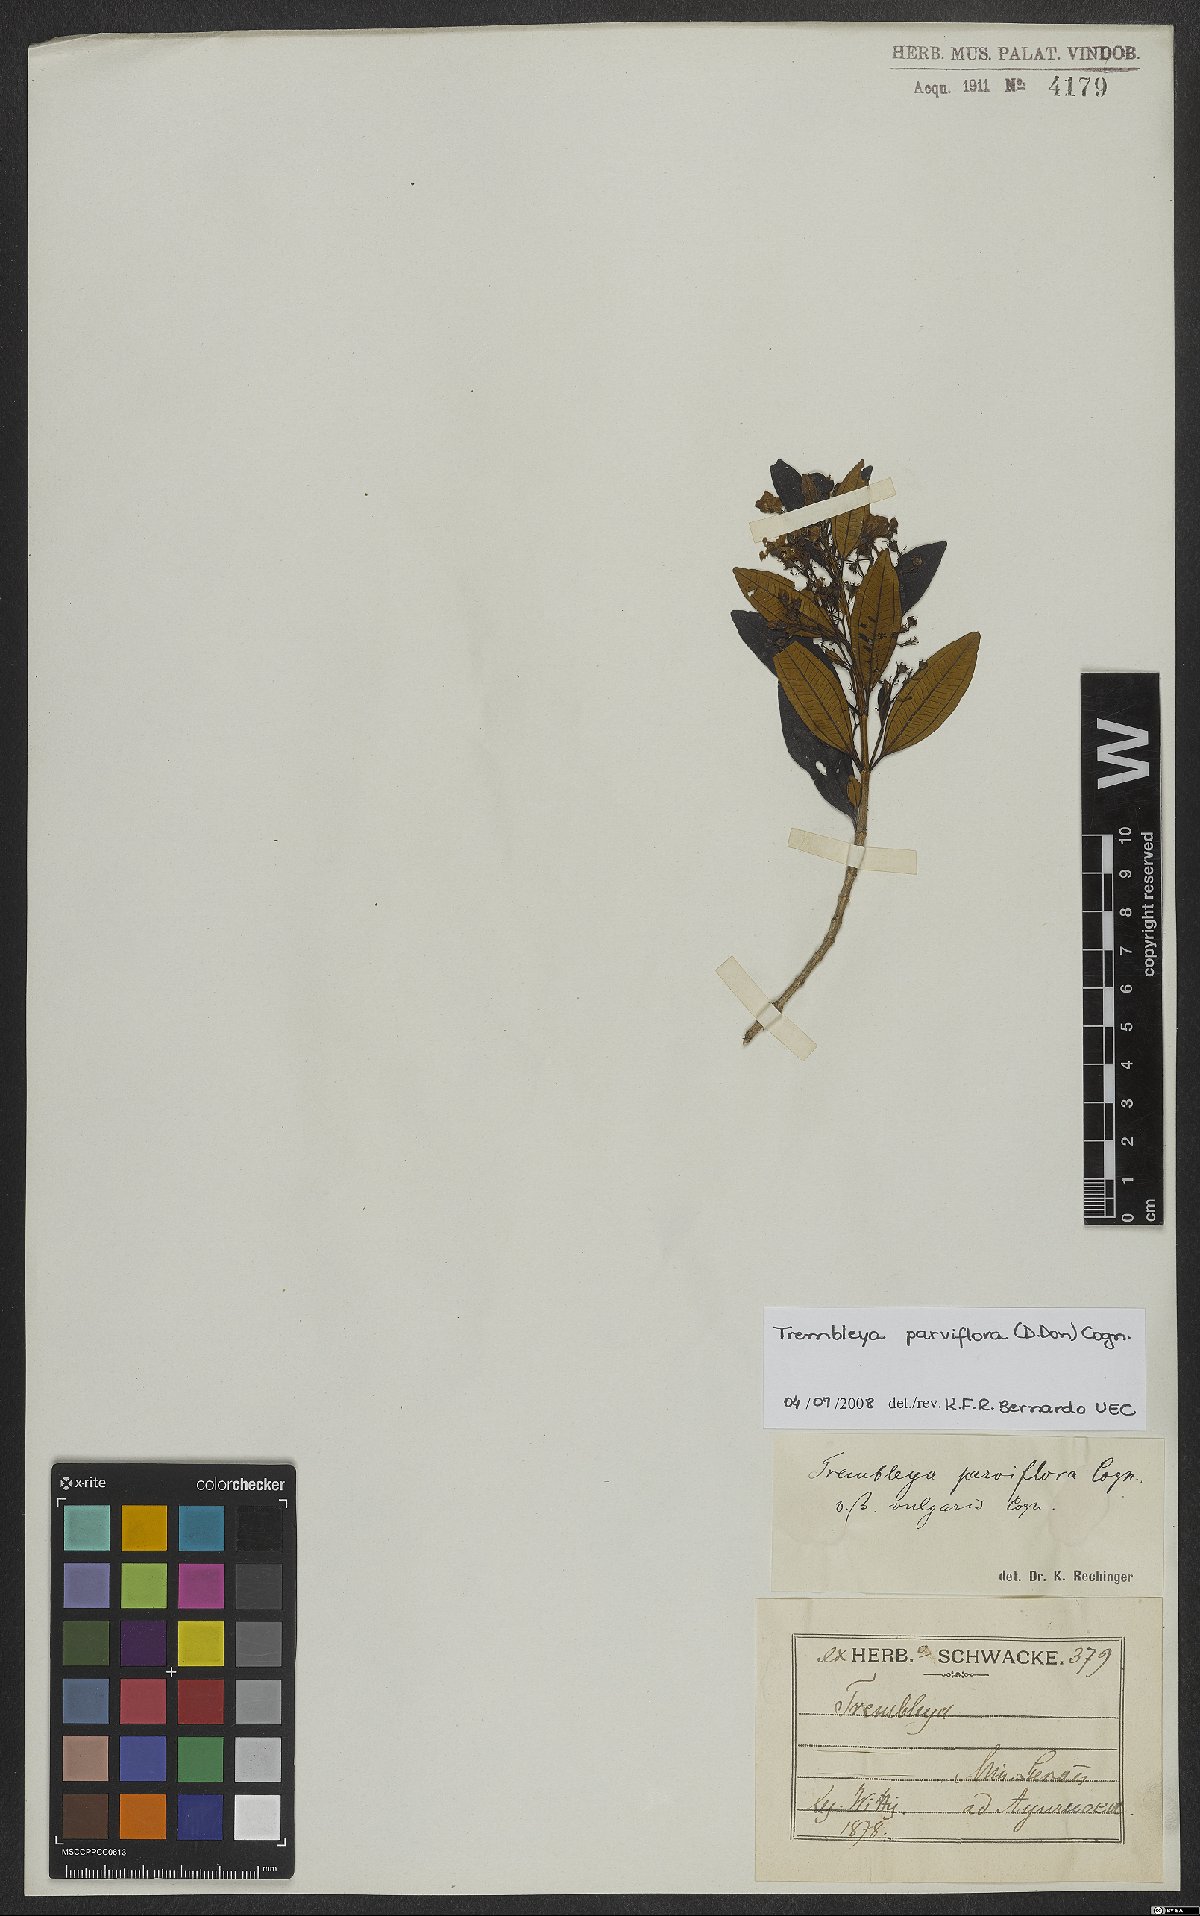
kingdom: Plantae
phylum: Tracheophyta
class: Magnoliopsida
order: Myrtales
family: Melastomataceae
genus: Microlicia
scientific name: Microlicia parviflora
